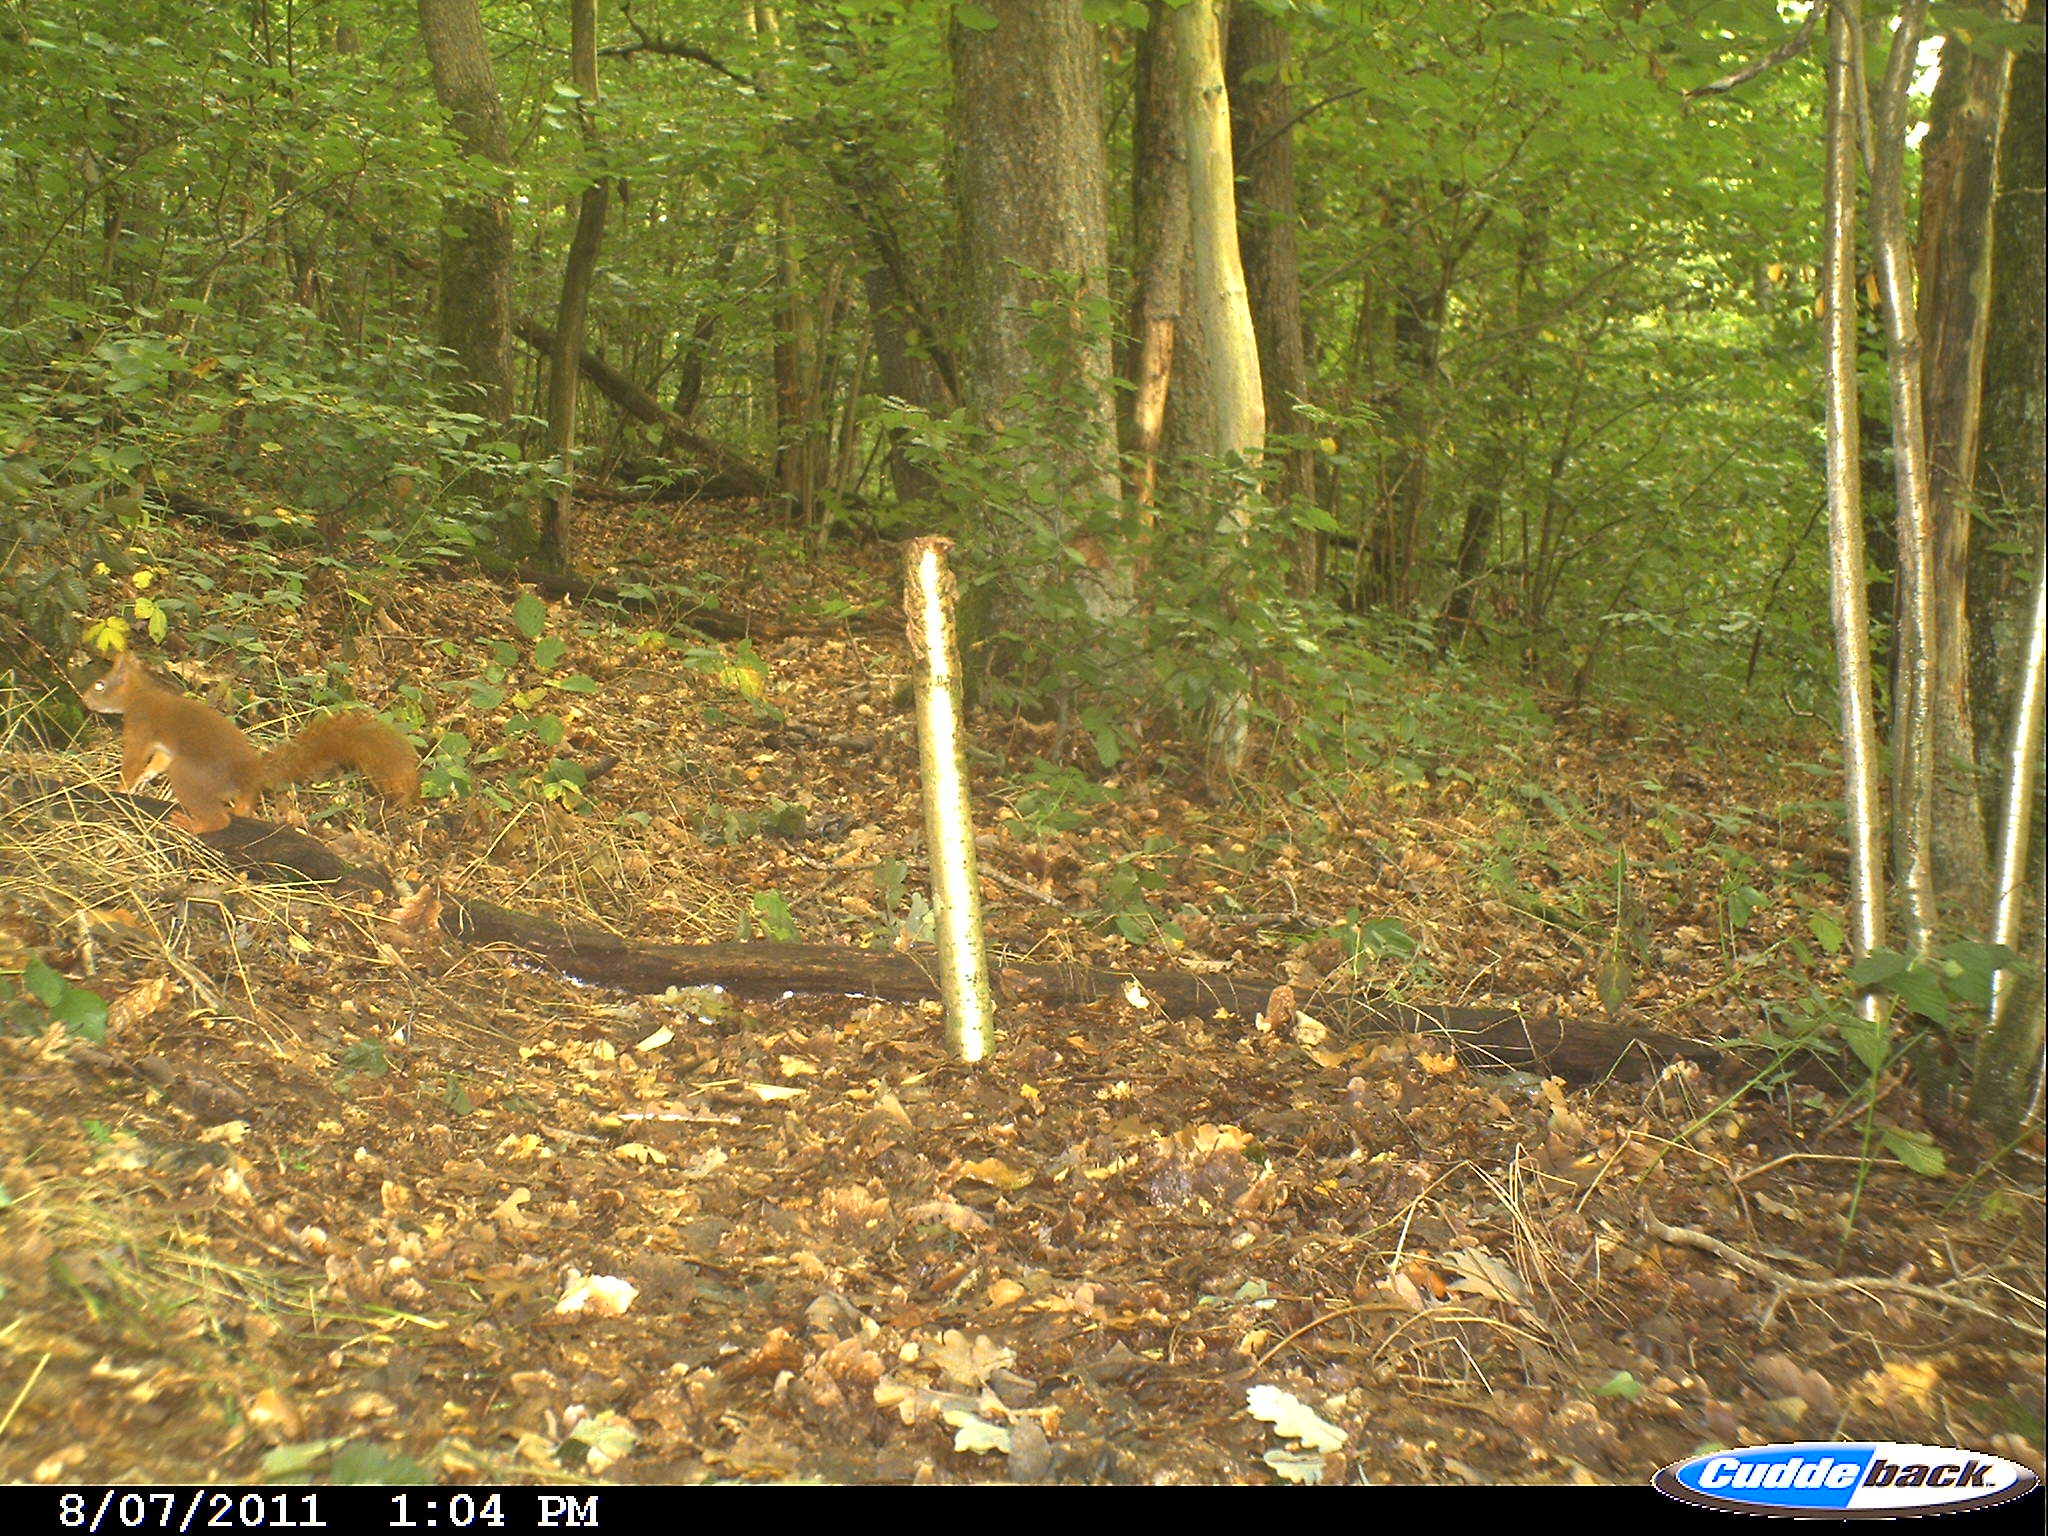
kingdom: Animalia
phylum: Chordata
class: Mammalia
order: Rodentia
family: Sciuridae
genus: Sciurus
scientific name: Sciurus vulgaris
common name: Eurasian red squirrel
